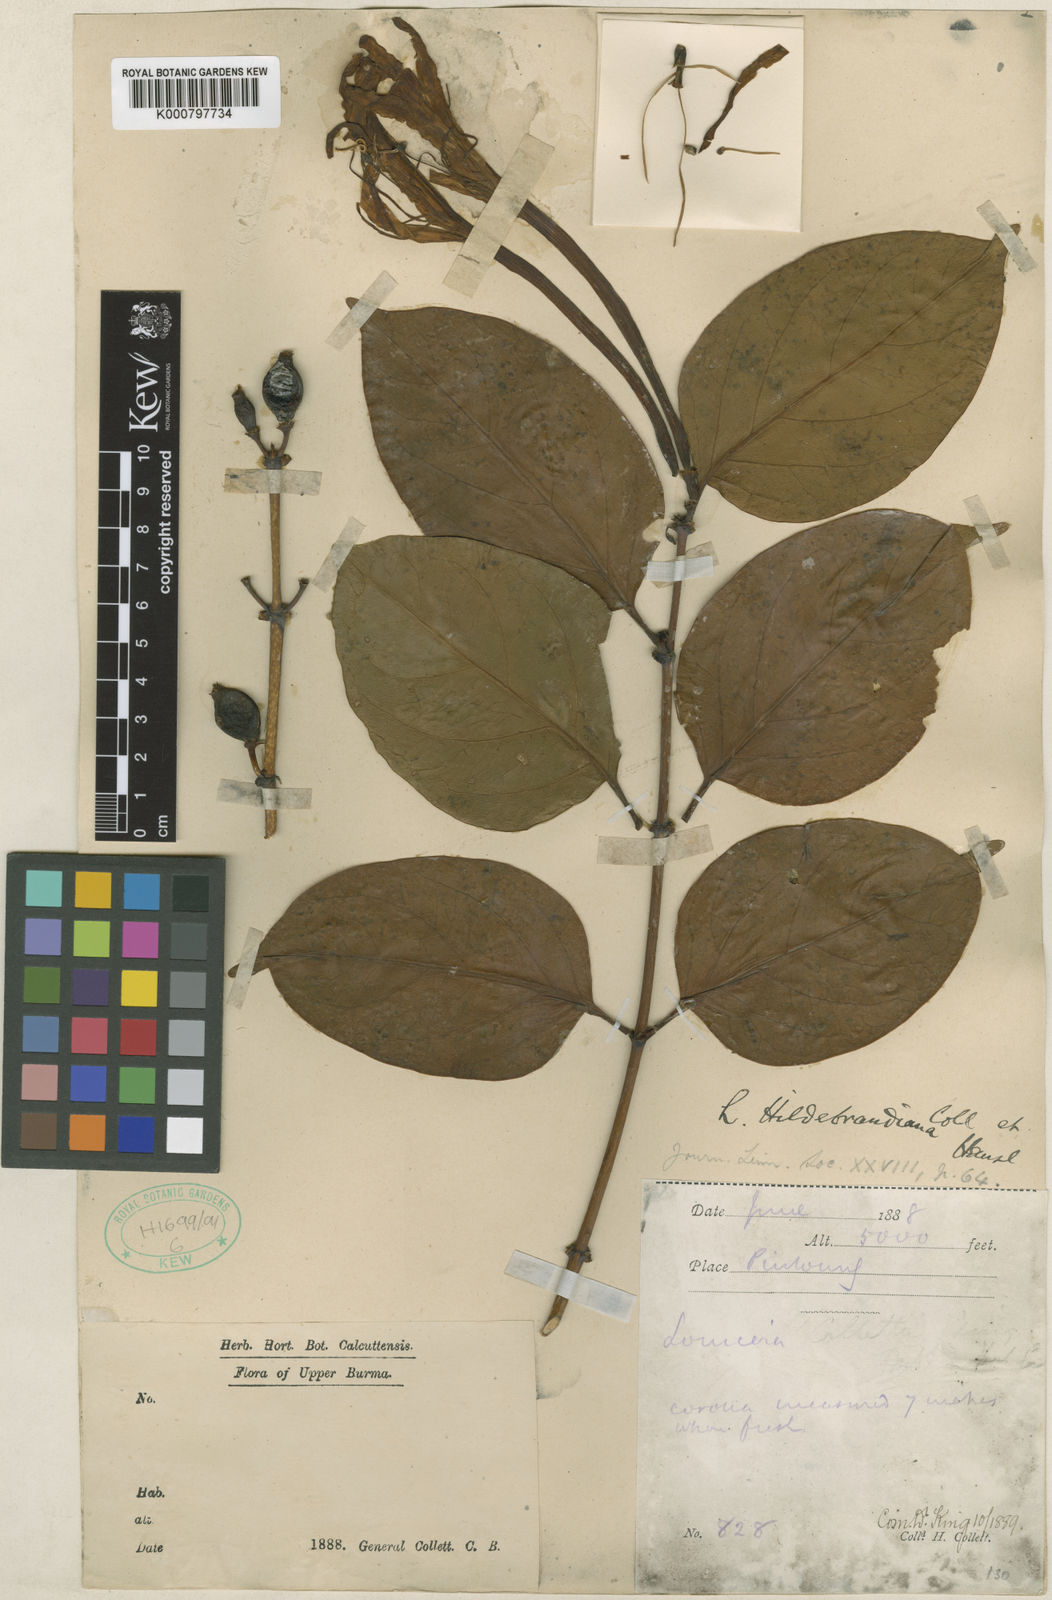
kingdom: Plantae
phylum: Tracheophyta
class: Magnoliopsida
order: Dipsacales
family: Caprifoliaceae
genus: Lonicera
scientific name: Lonicera hildebrandtiana
